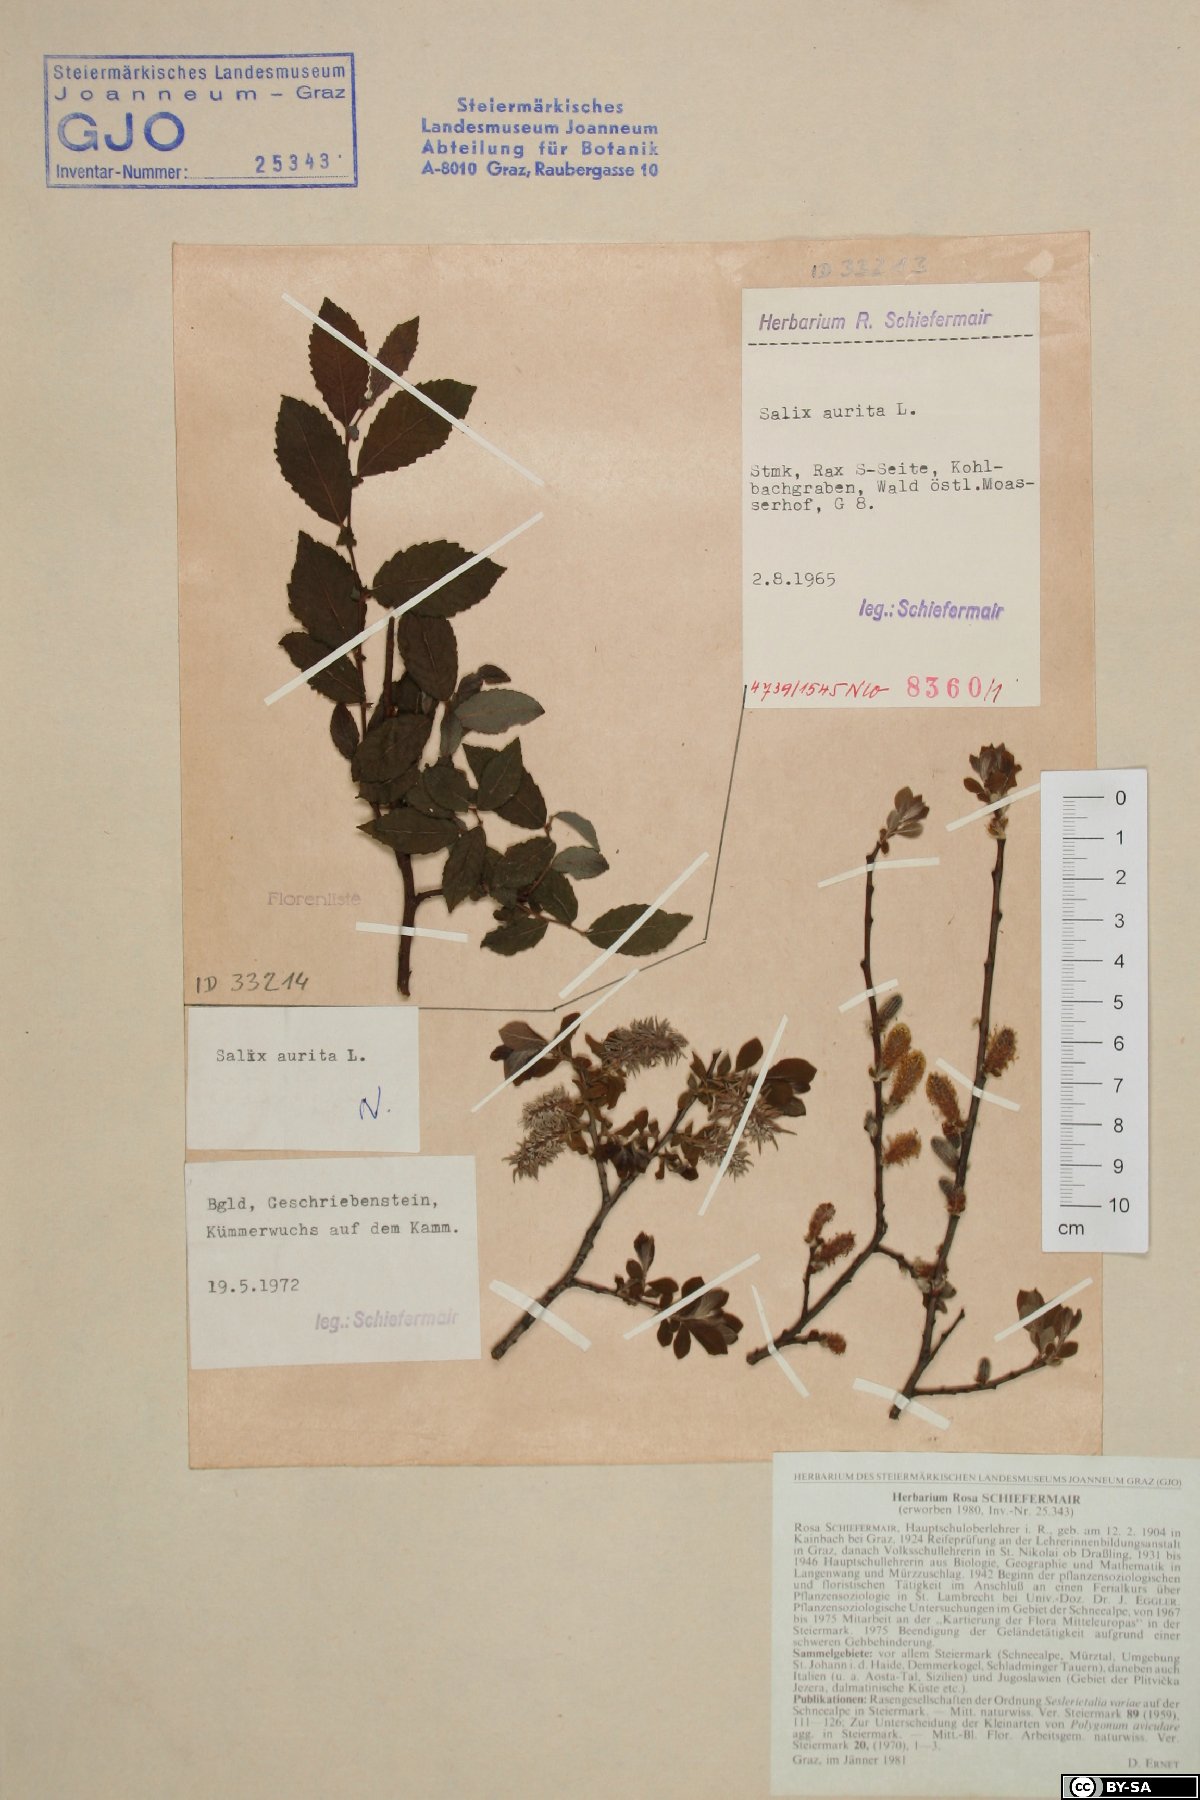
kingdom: Plantae
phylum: Tracheophyta
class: Magnoliopsida
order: Malpighiales
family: Salicaceae
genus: Salix
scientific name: Salix aurita
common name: Eared willow
